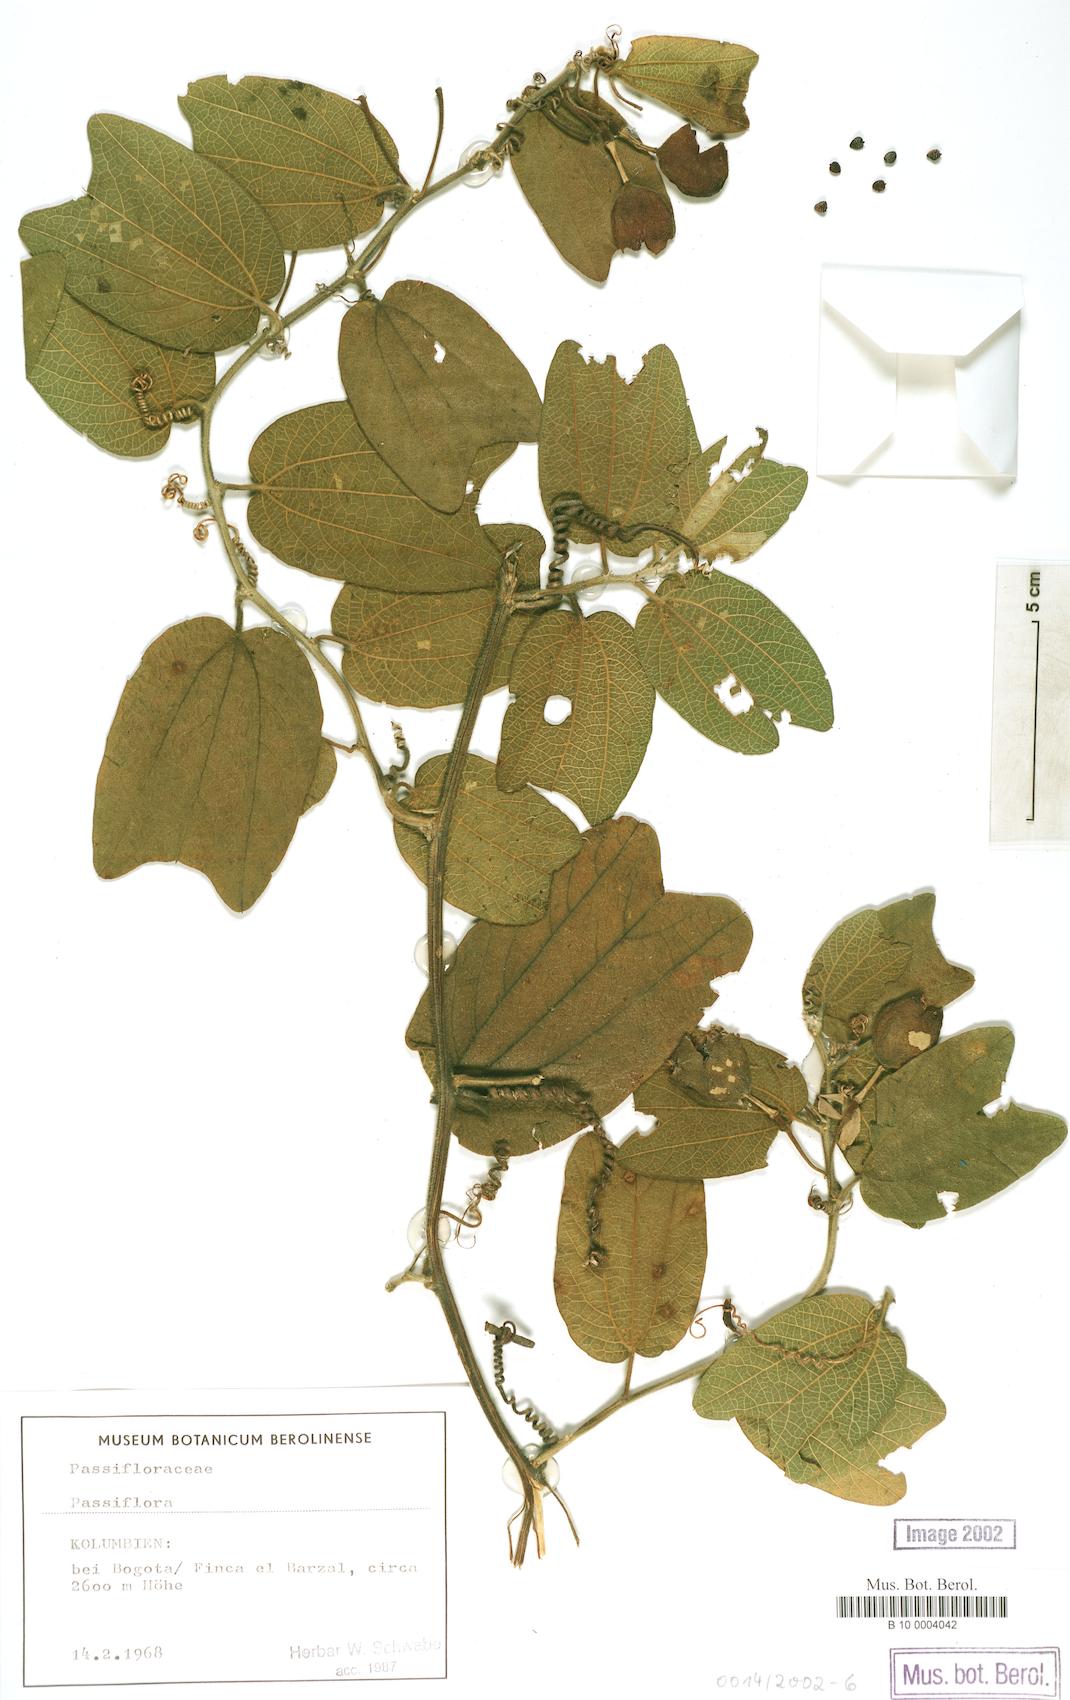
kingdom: Plantae
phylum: Tracheophyta
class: Magnoliopsida
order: Malpighiales
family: Passifloraceae
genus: Passiflora
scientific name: Passiflora
